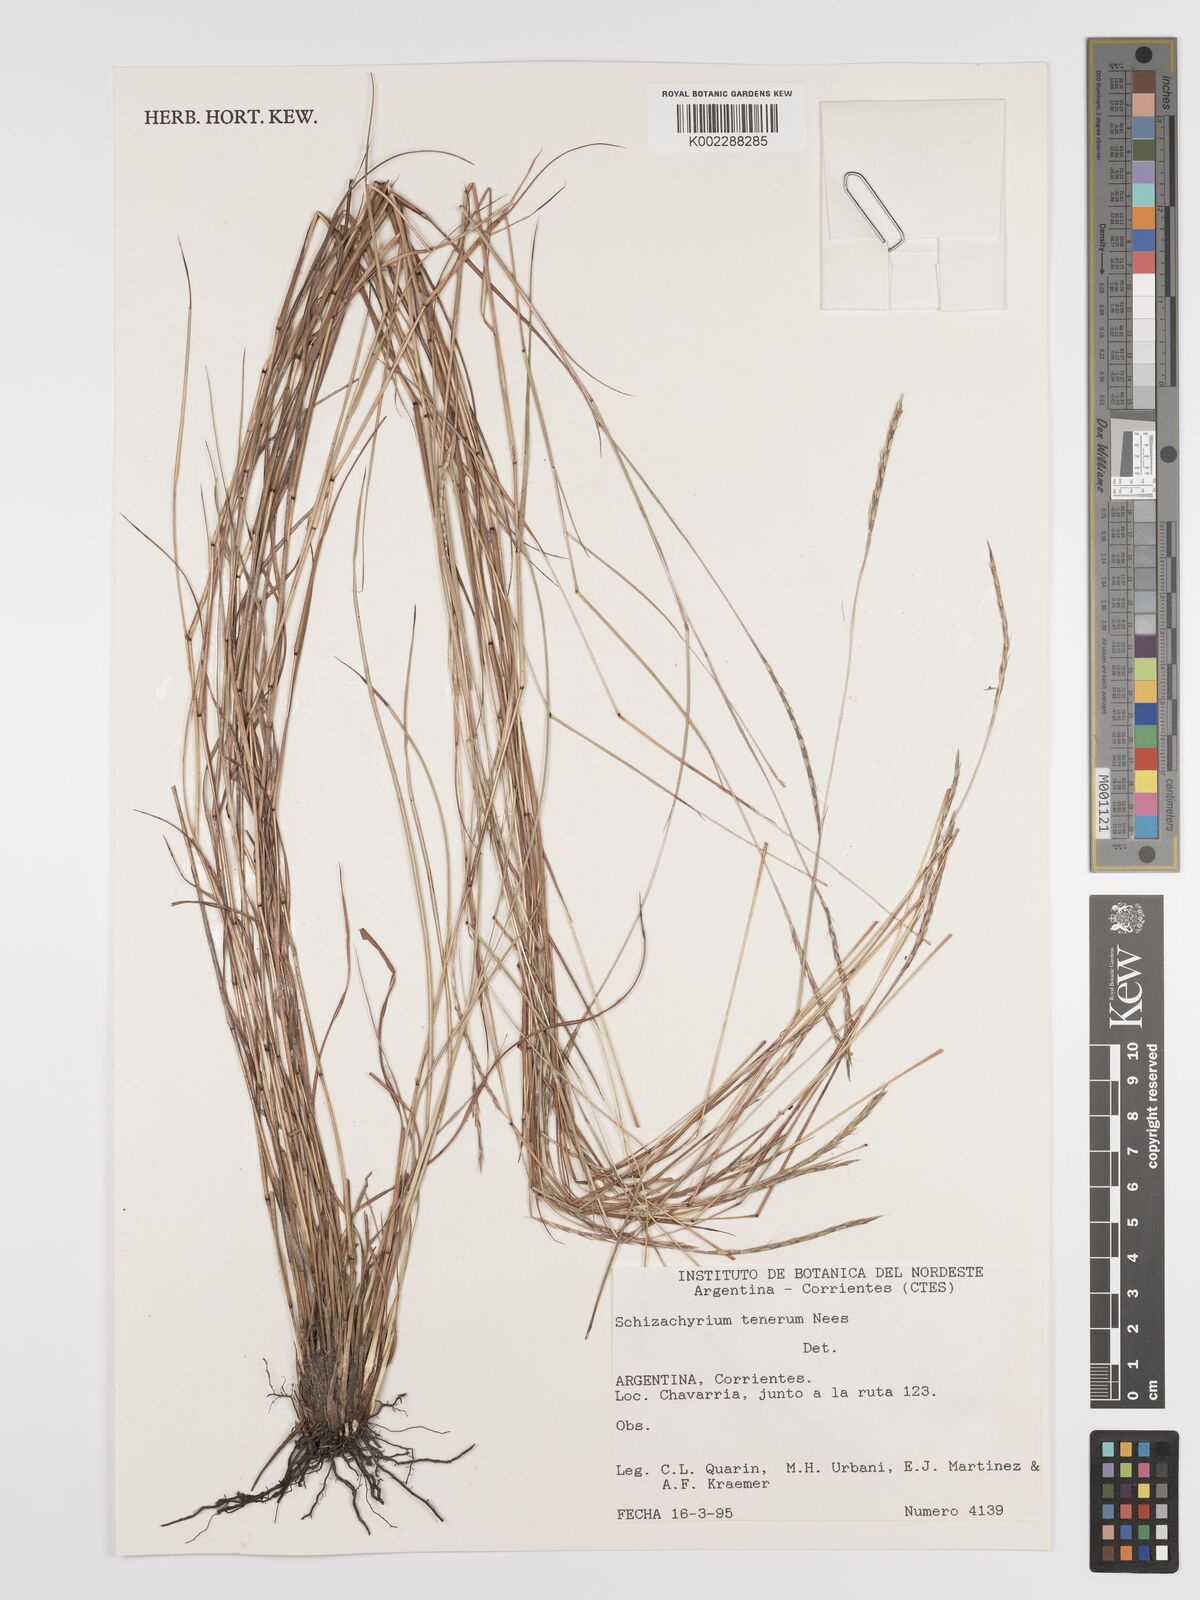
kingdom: Plantae
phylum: Tracheophyta
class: Liliopsida
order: Poales
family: Poaceae
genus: Andropogon
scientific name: Andropogon tener
